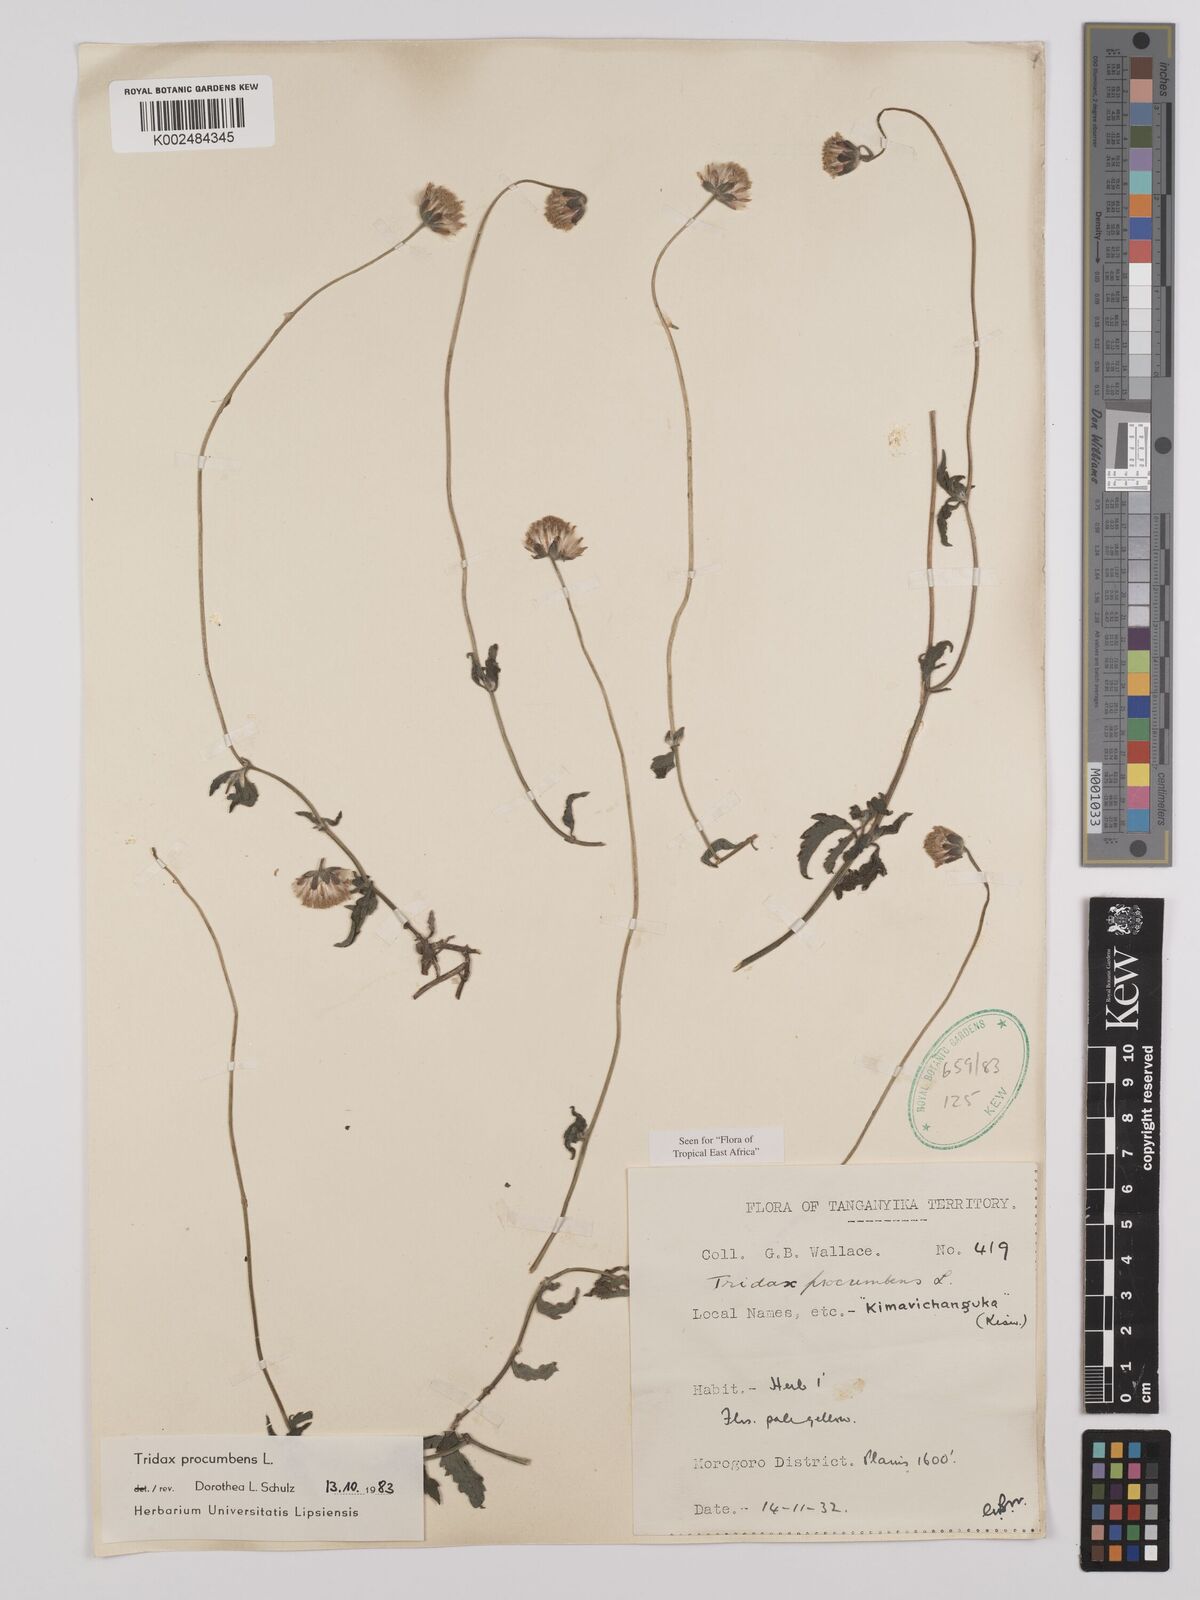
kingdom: Plantae
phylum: Tracheophyta
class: Magnoliopsida
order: Asterales
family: Asteraceae
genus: Tridax
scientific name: Tridax procumbens
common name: Coatbuttons
